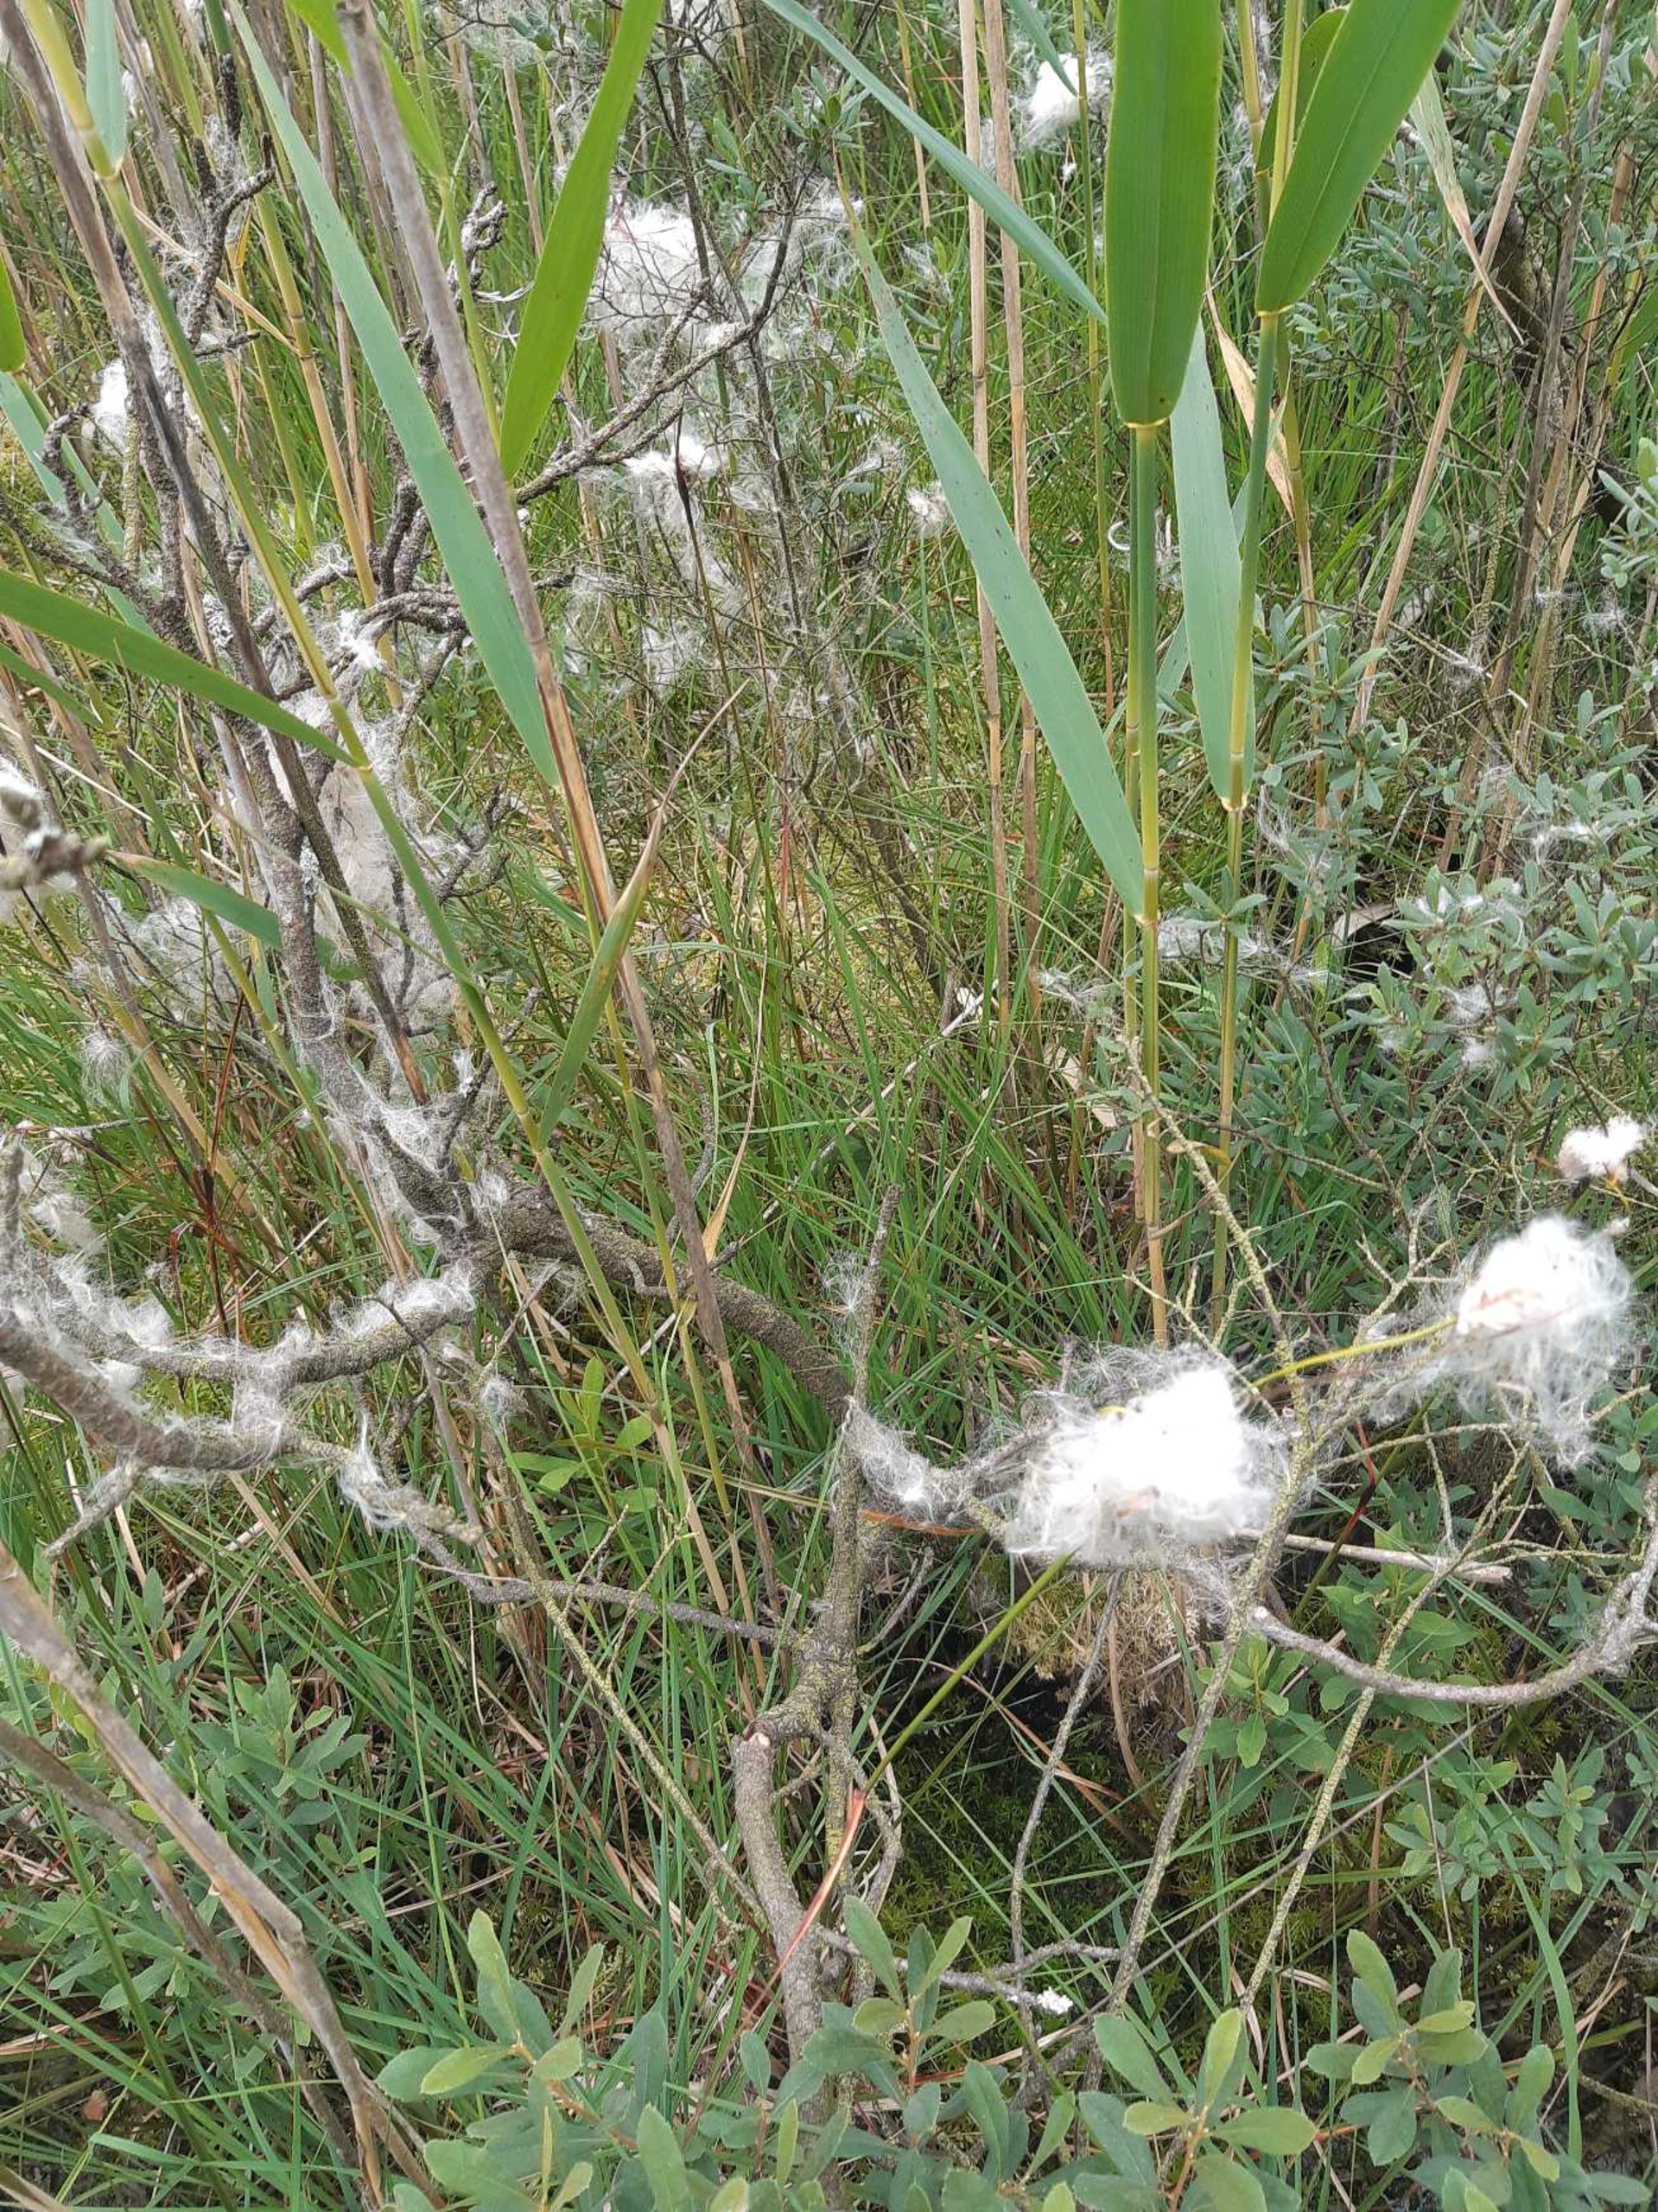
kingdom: Plantae
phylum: Tracheophyta
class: Liliopsida
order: Poales
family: Cyperaceae
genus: Eriophorum
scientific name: Eriophorum angustifolium
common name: Smalbladet kæruld
